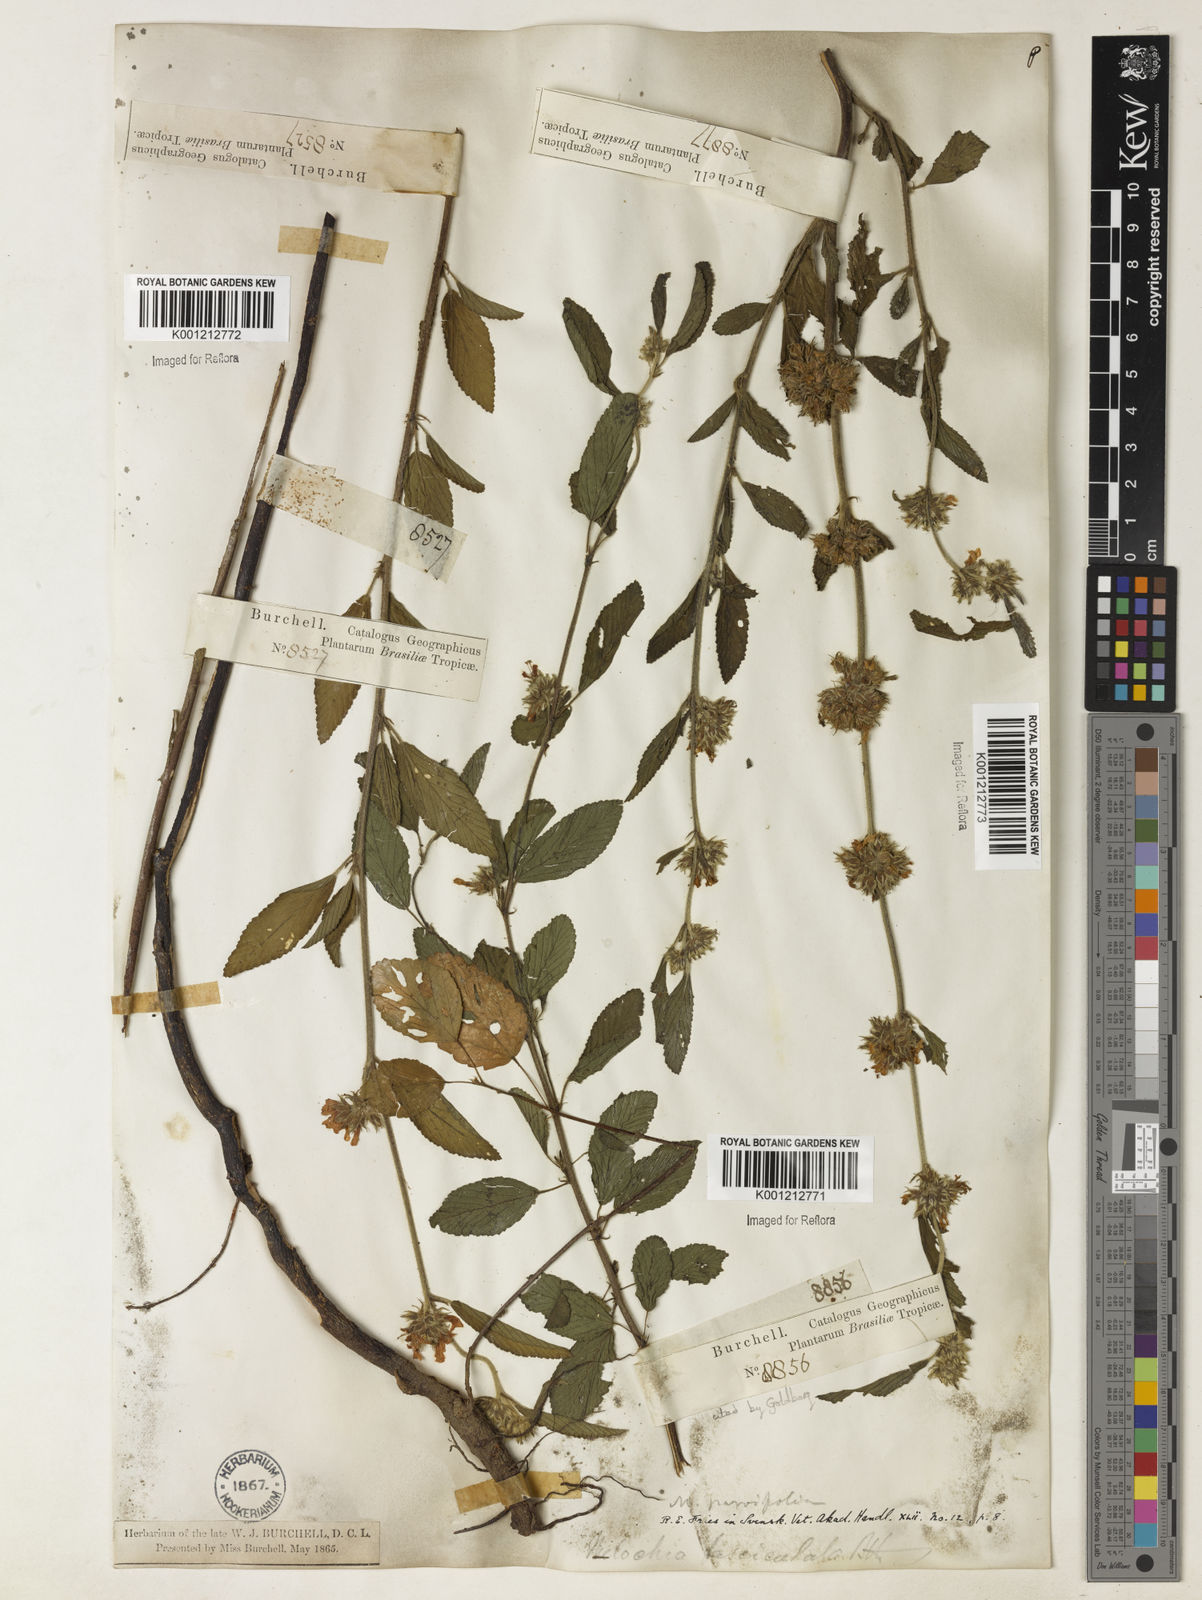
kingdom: Plantae
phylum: Tracheophyta
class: Magnoliopsida
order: Malvales
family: Malvaceae
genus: Melochia
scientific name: Melochia
